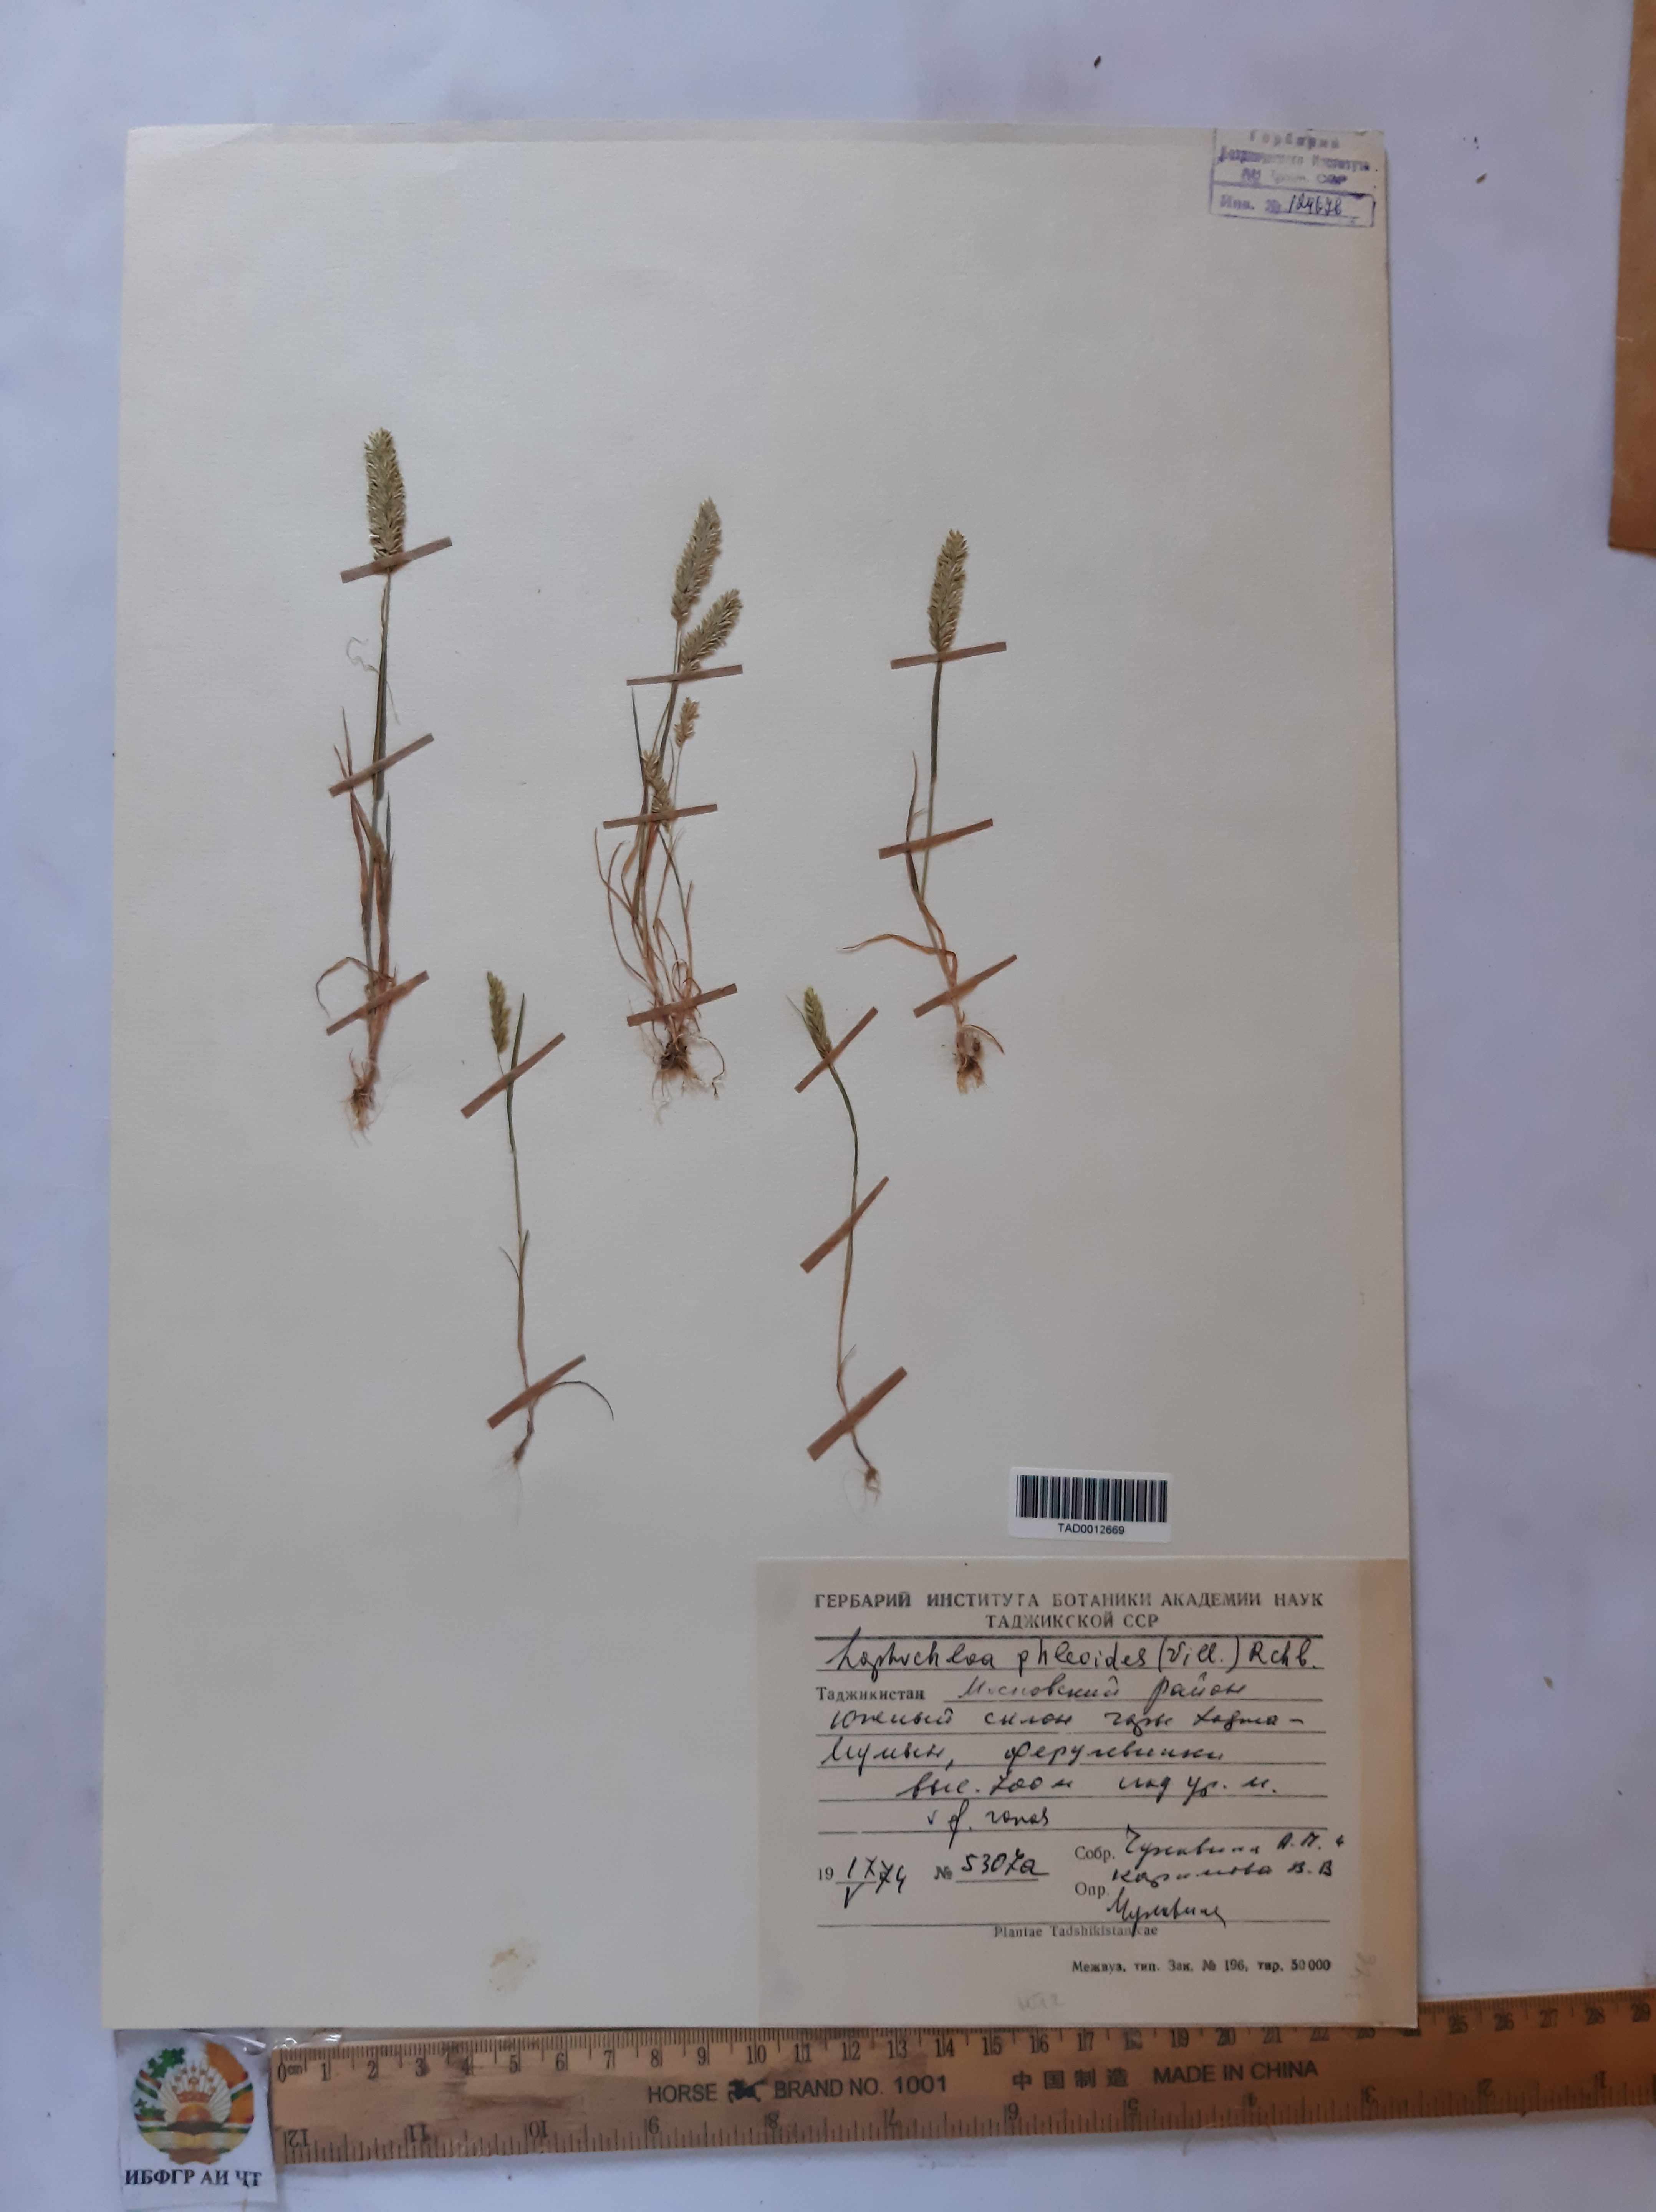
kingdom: Plantae
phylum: Tracheophyta
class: Liliopsida
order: Poales
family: Poaceae
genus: Rostraria
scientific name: Rostraria cristata
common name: Mediterranean hair-grass
